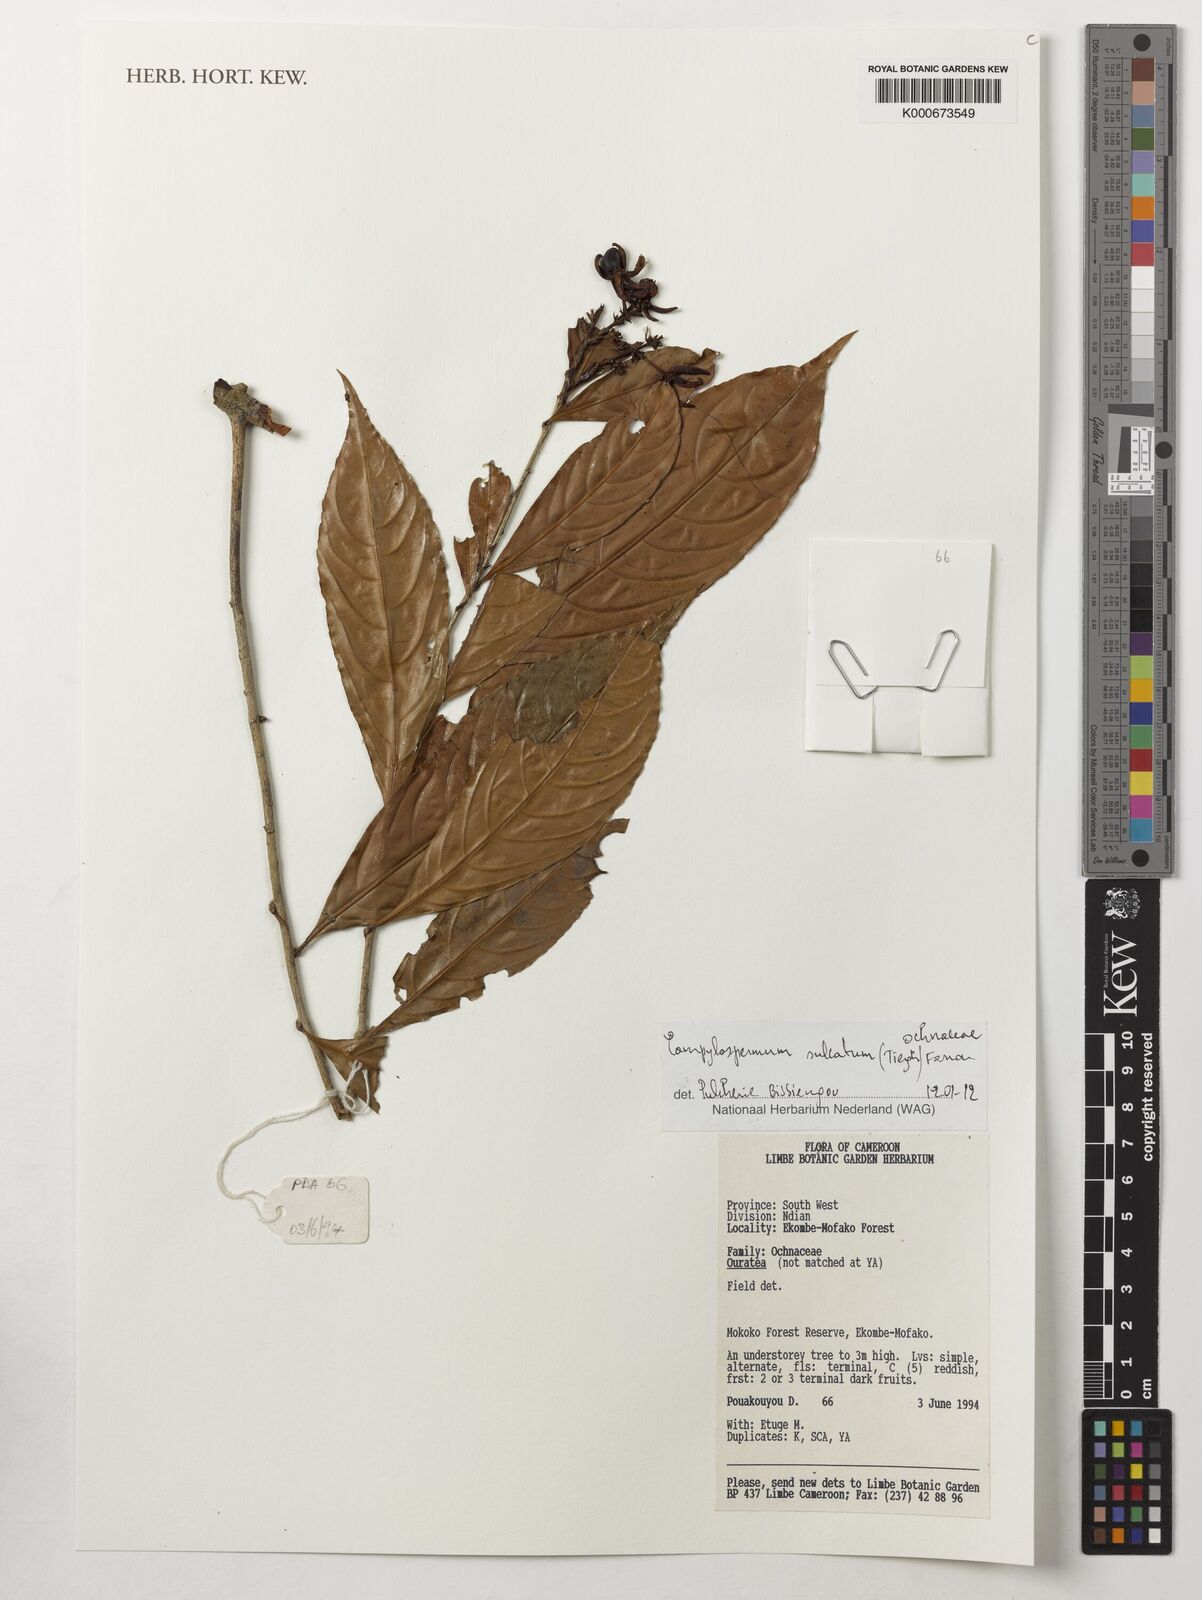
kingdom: Plantae
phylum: Tracheophyta
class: Magnoliopsida
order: Malpighiales
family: Ochnaceae
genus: Campylospermum
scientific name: Campylospermum sulcatum
